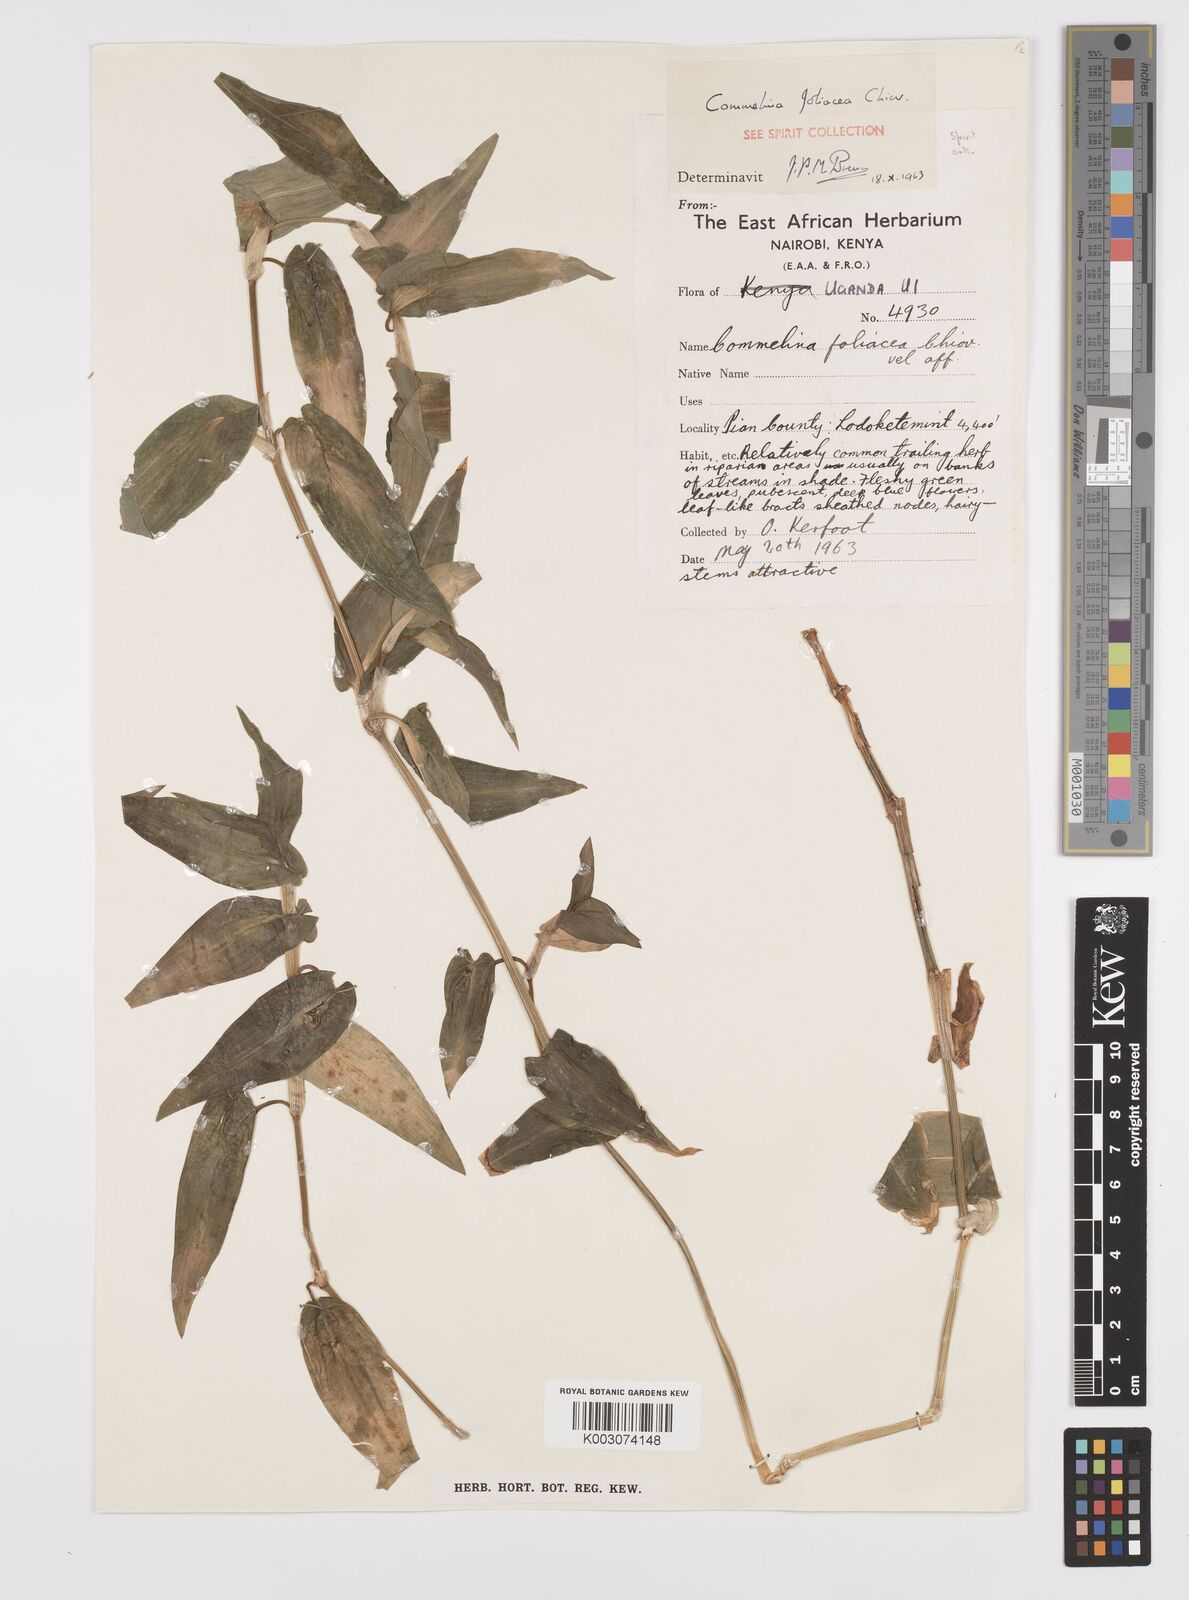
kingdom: Plantae
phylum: Tracheophyta
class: Liliopsida
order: Commelinales
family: Commelinaceae
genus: Commelina
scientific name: Commelina foliacea
